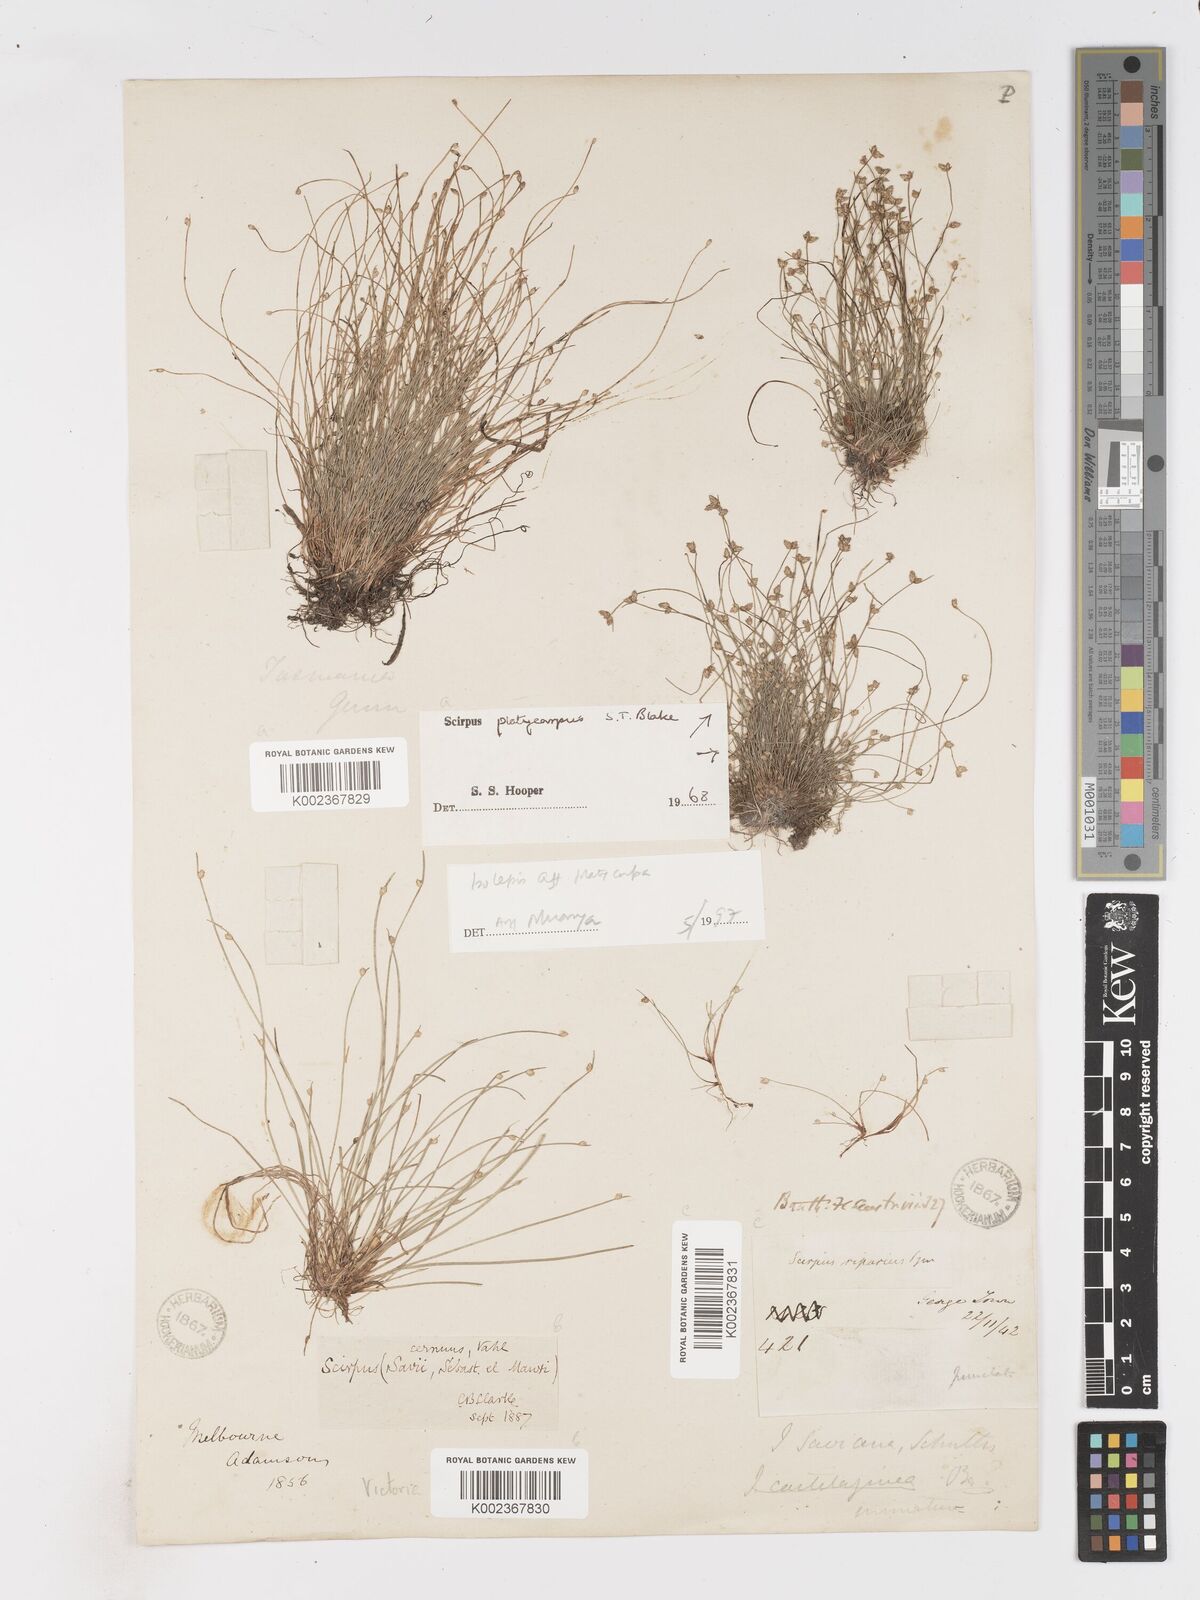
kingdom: Plantae
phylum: Tracheophyta
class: Liliopsida
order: Poales
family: Cyperaceae
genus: Isolepis
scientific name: Isolepis cernua
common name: Slender club-rush
